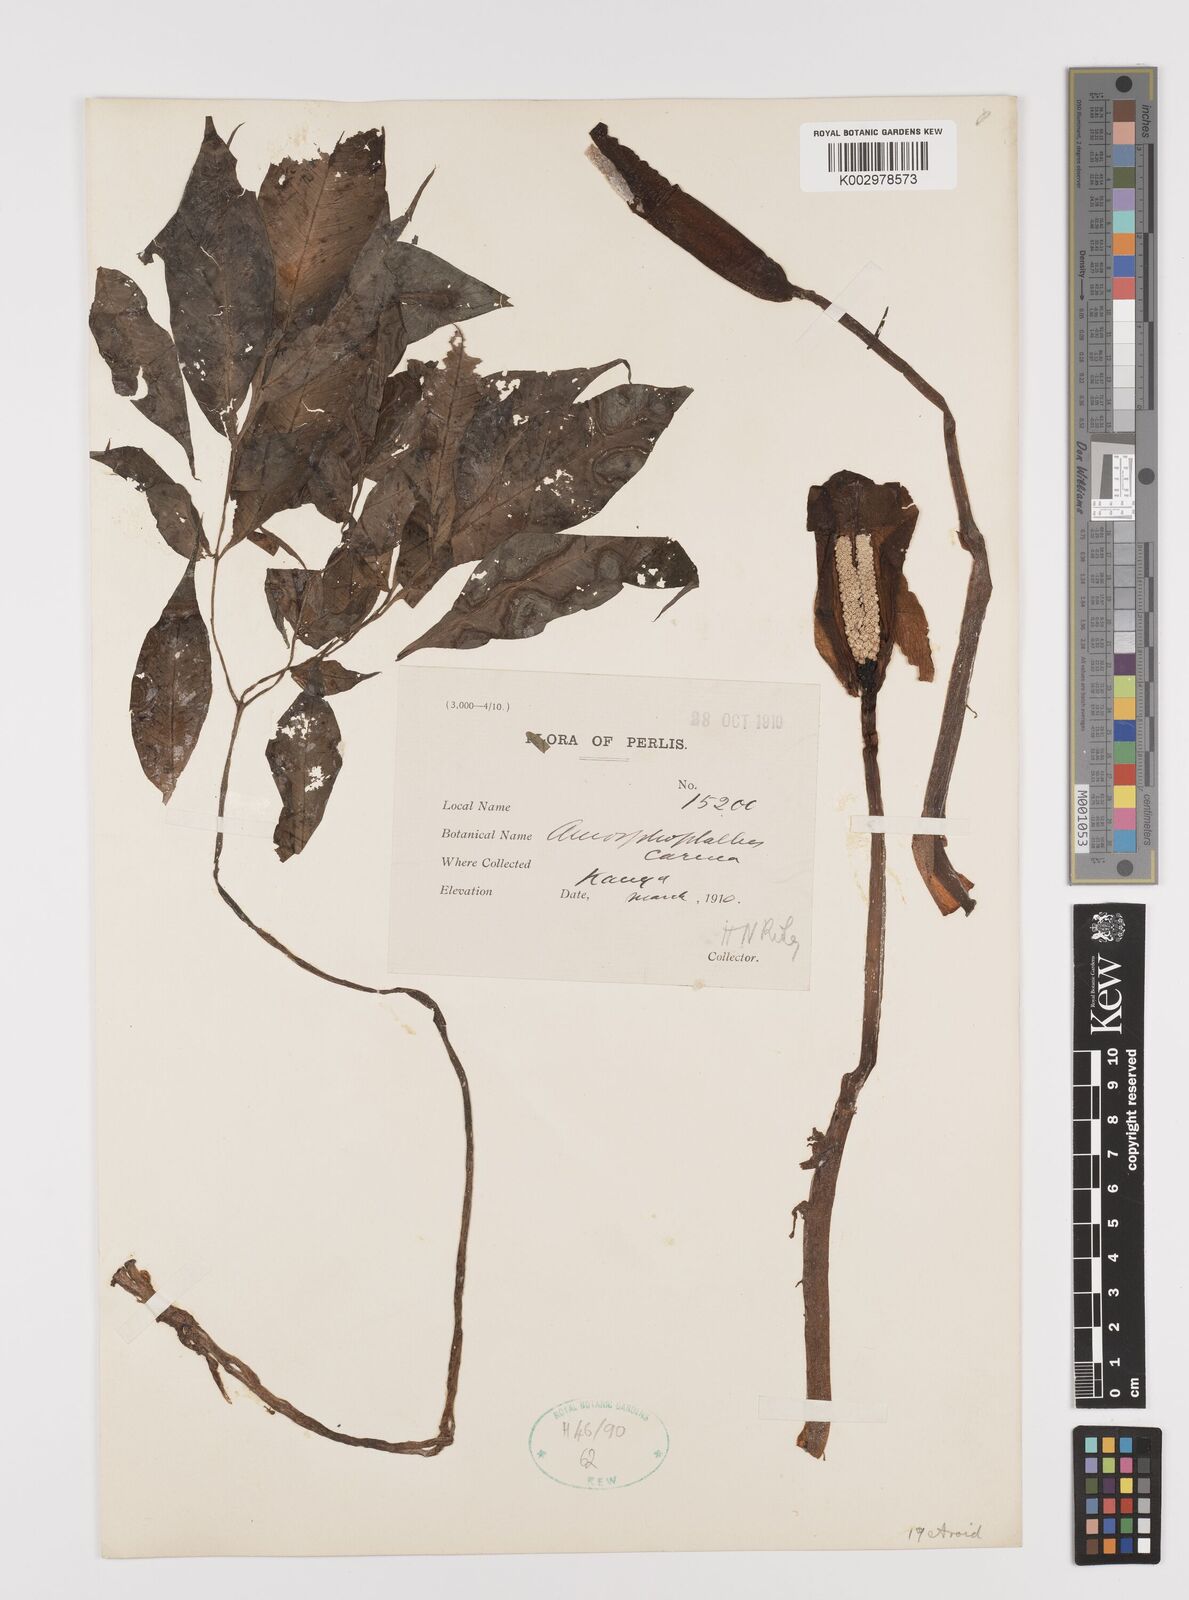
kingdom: Plantae
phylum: Tracheophyta
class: Liliopsida
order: Alismatales
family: Araceae
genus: Amorphophallus
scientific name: Amorphophallus carneus
